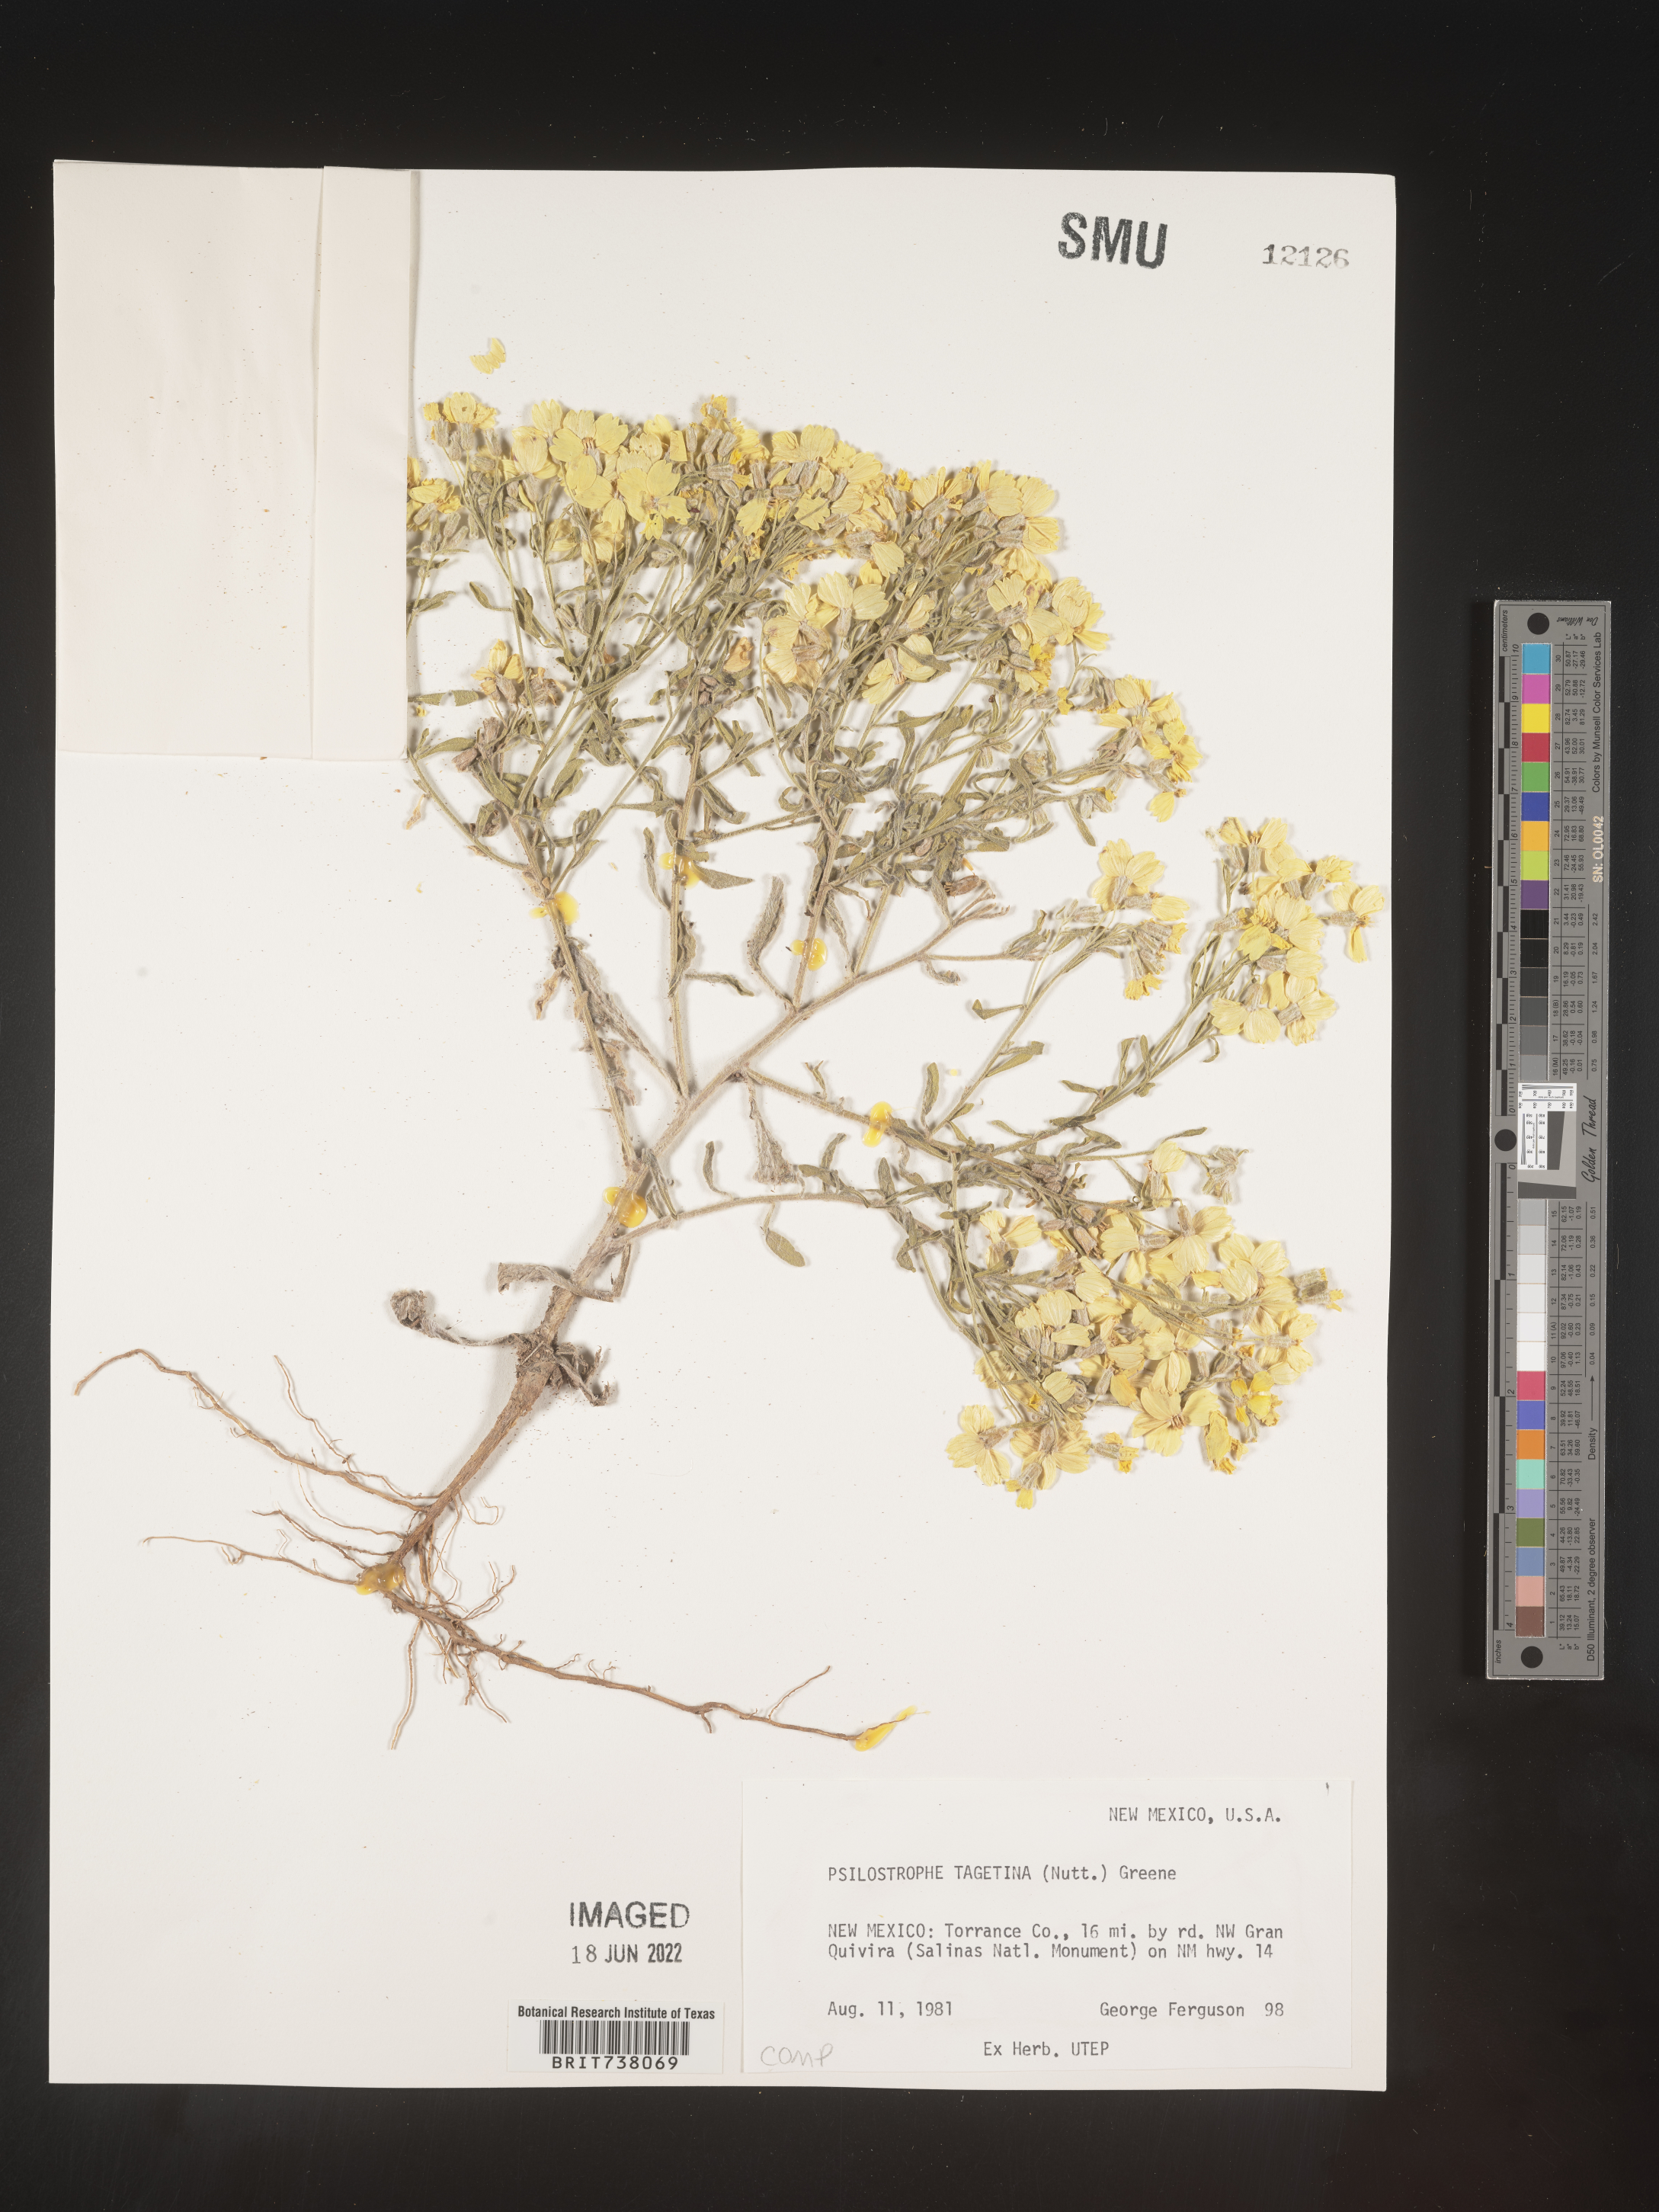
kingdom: Plantae
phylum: Tracheophyta
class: Magnoliopsida
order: Asterales
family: Asteraceae
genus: Psilostrophe
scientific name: Psilostrophe tagetina
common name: Marigold paper-flower
